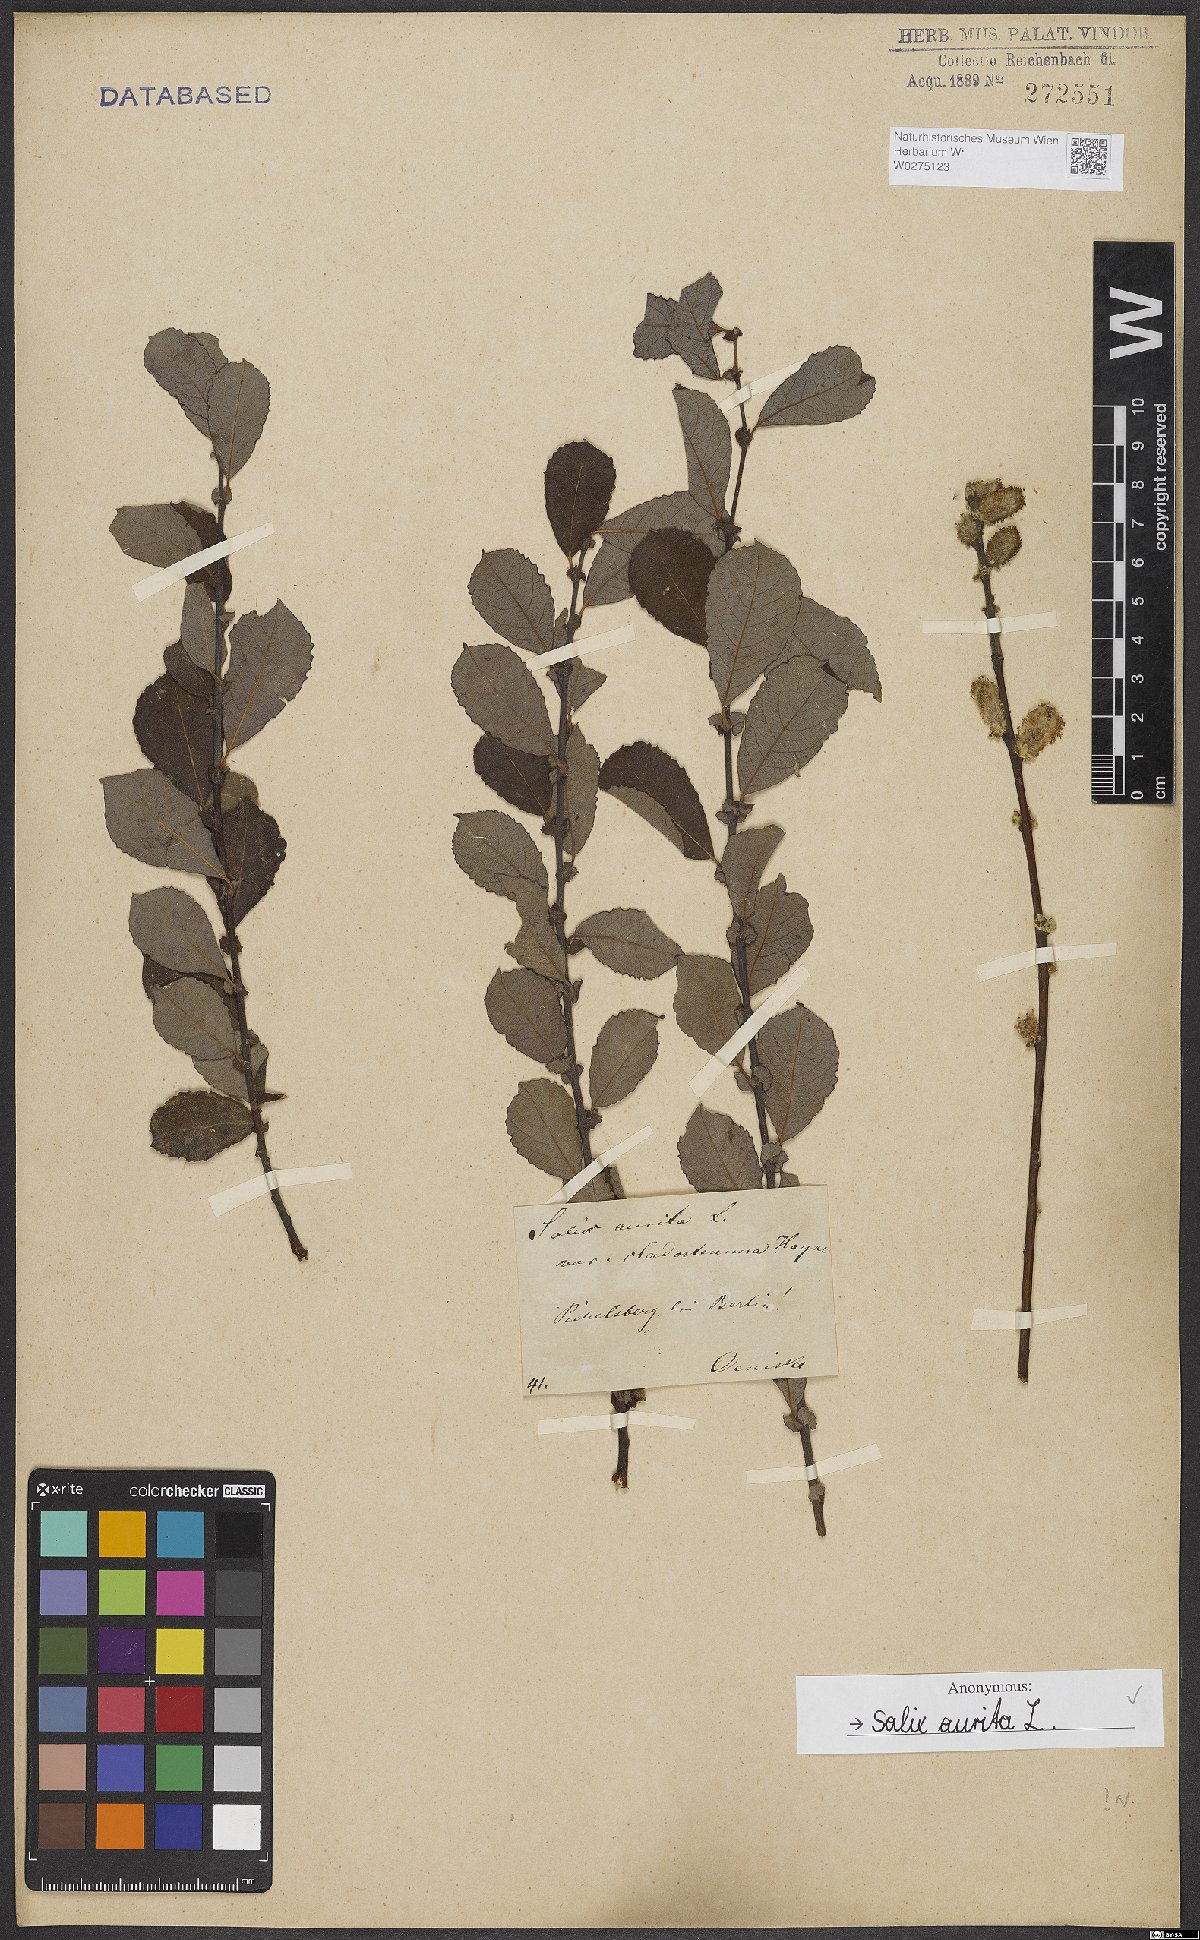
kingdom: Plantae
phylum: Tracheophyta
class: Magnoliopsida
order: Malpighiales
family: Salicaceae
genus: Salix
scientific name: Salix aurita
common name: Eared willow
